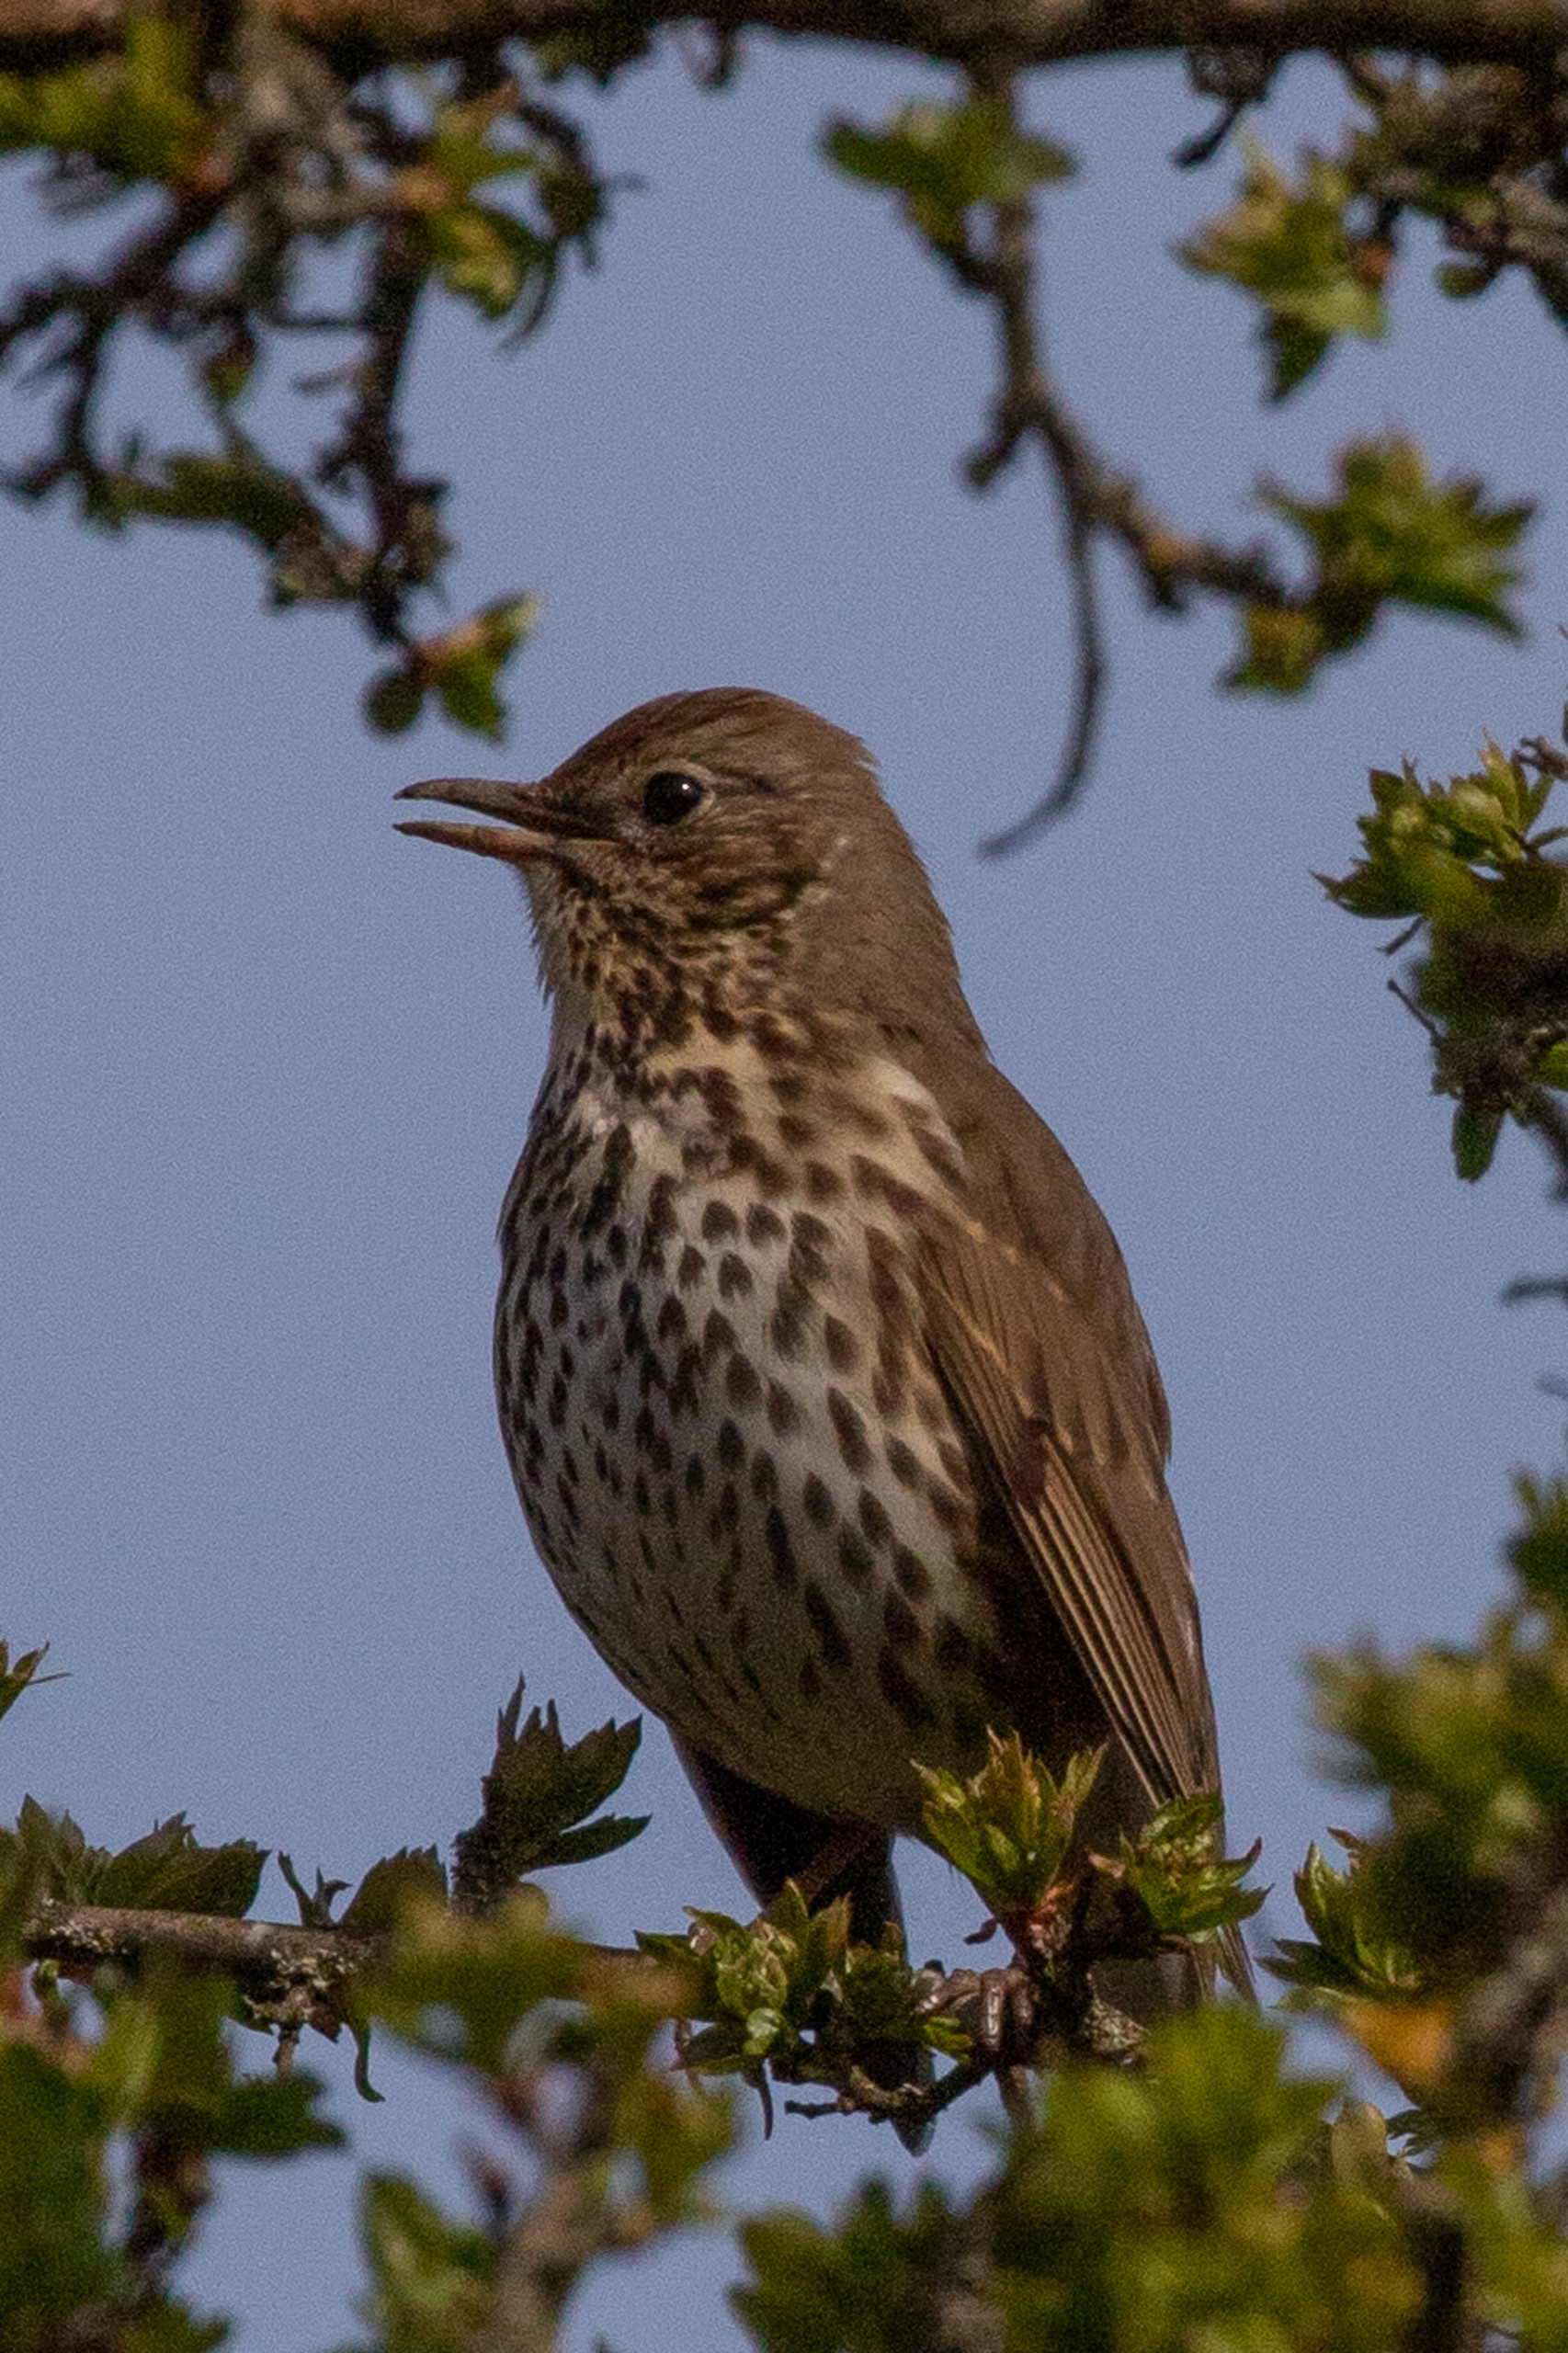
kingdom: Animalia
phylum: Chordata
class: Aves
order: Passeriformes
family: Turdidae
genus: Turdus
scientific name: Turdus philomelos
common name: Sangdrossel
